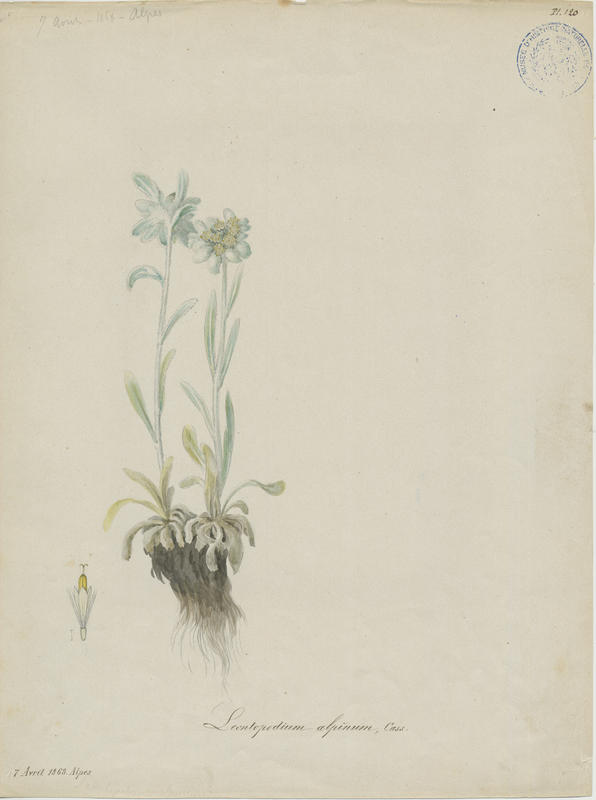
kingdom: Plantae
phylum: Tracheophyta
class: Magnoliopsida
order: Asterales
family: Asteraceae
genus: Leontopodium
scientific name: Leontopodium nivale
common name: Edelweiss
